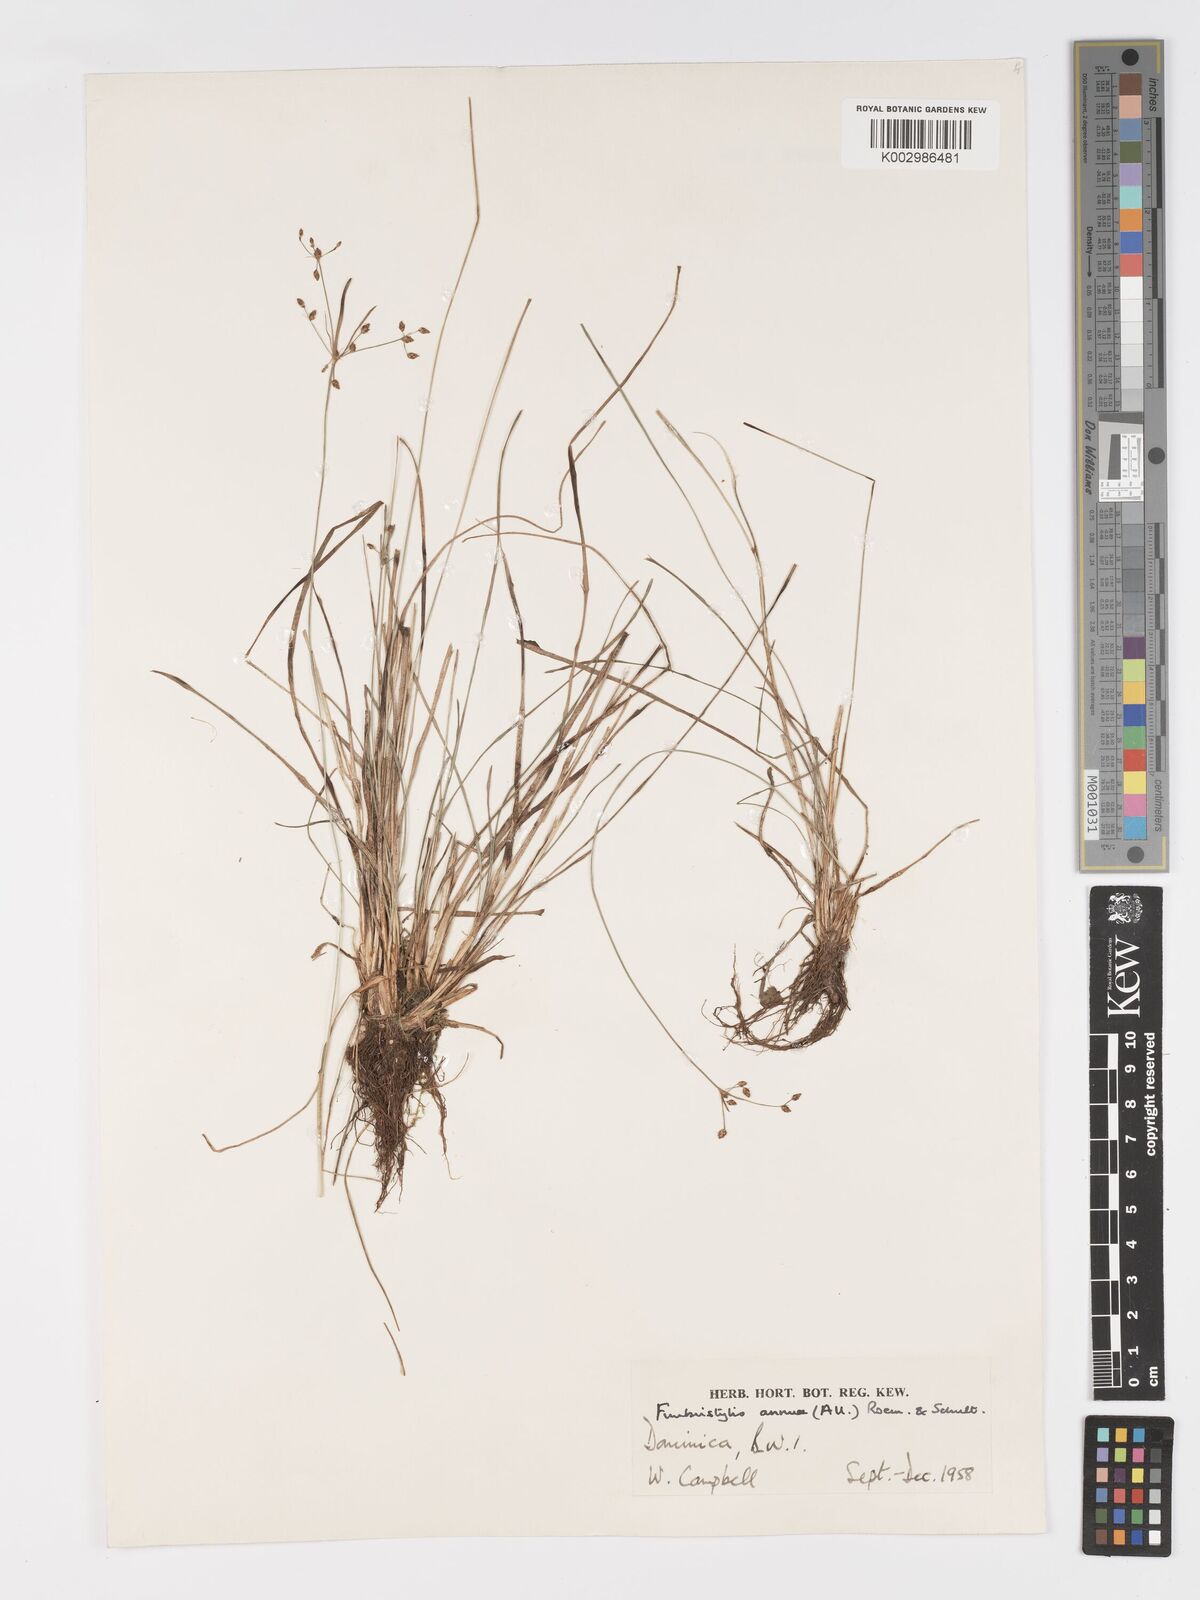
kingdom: Plantae
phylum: Tracheophyta
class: Liliopsida
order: Poales
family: Cyperaceae
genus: Fimbristylis
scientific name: Fimbristylis dichotoma
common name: Forked fimbry
